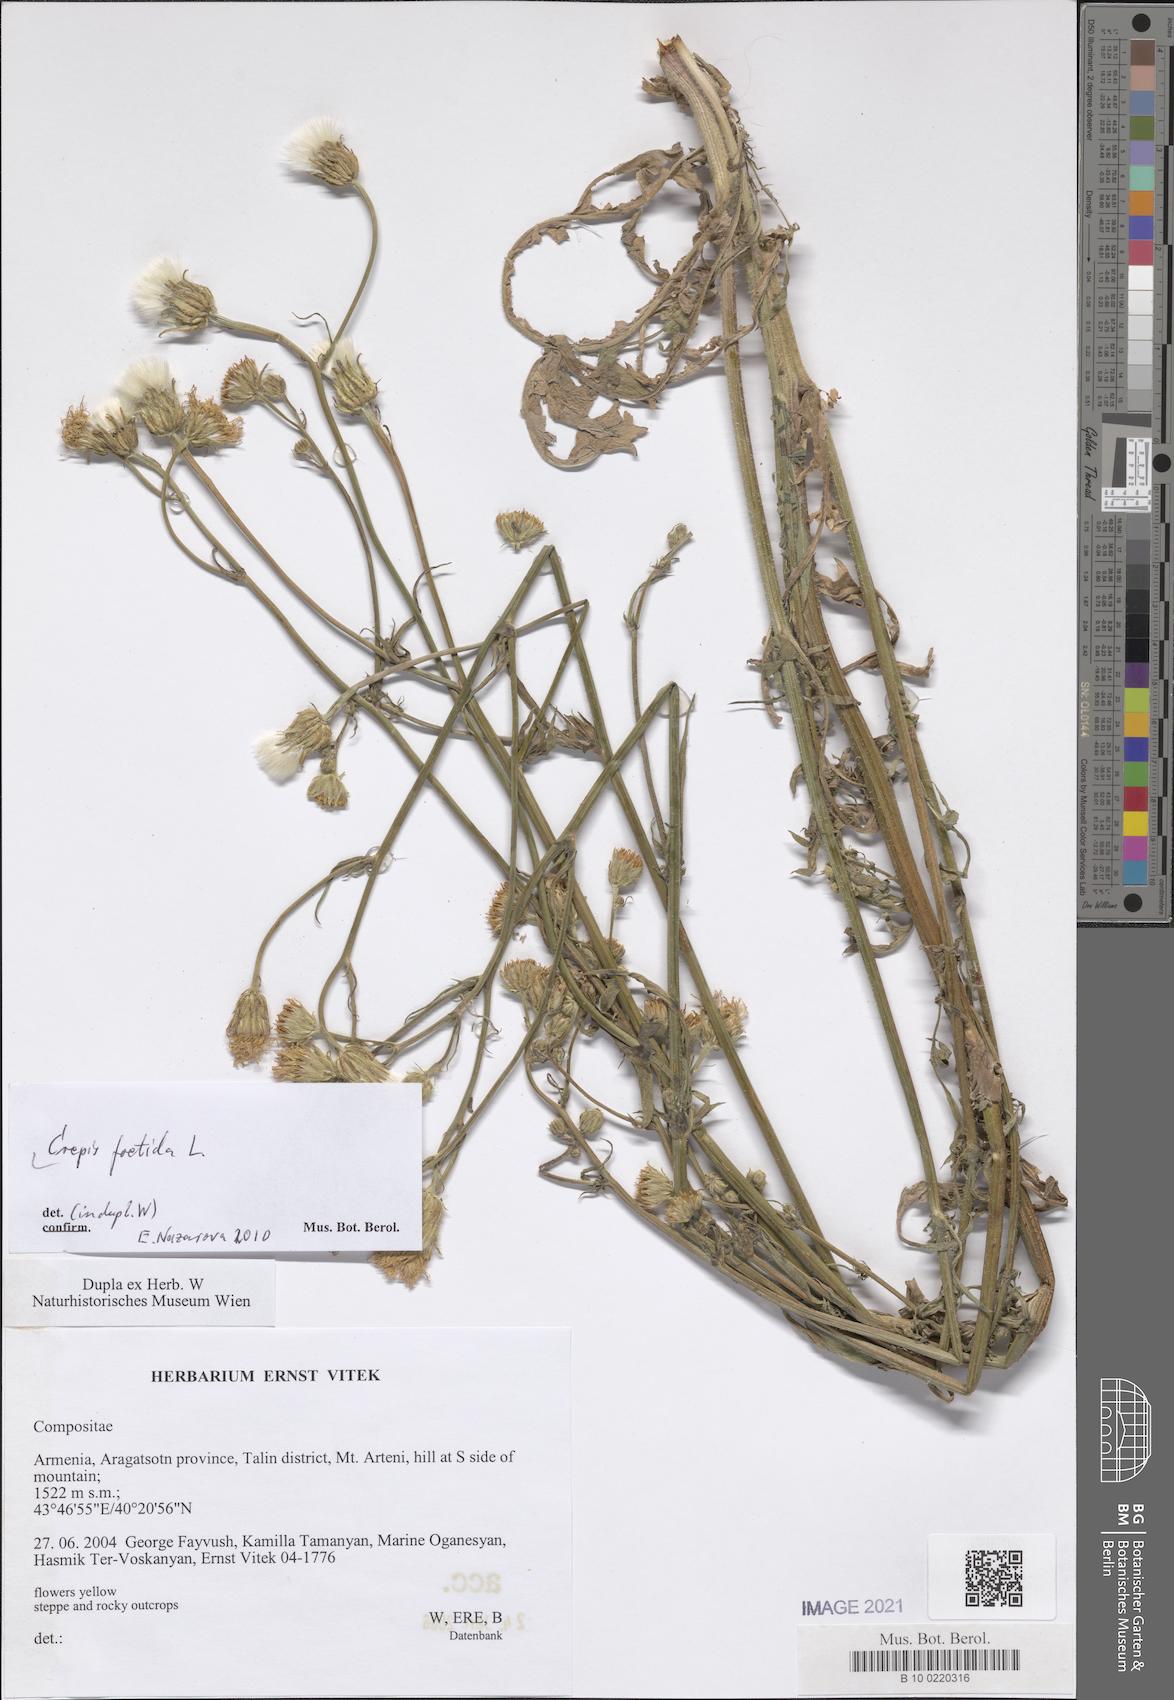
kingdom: Plantae
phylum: Tracheophyta
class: Magnoliopsida
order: Asterales
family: Asteraceae
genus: Crepis
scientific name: Crepis foetida
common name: Stinking hawk's-beard
